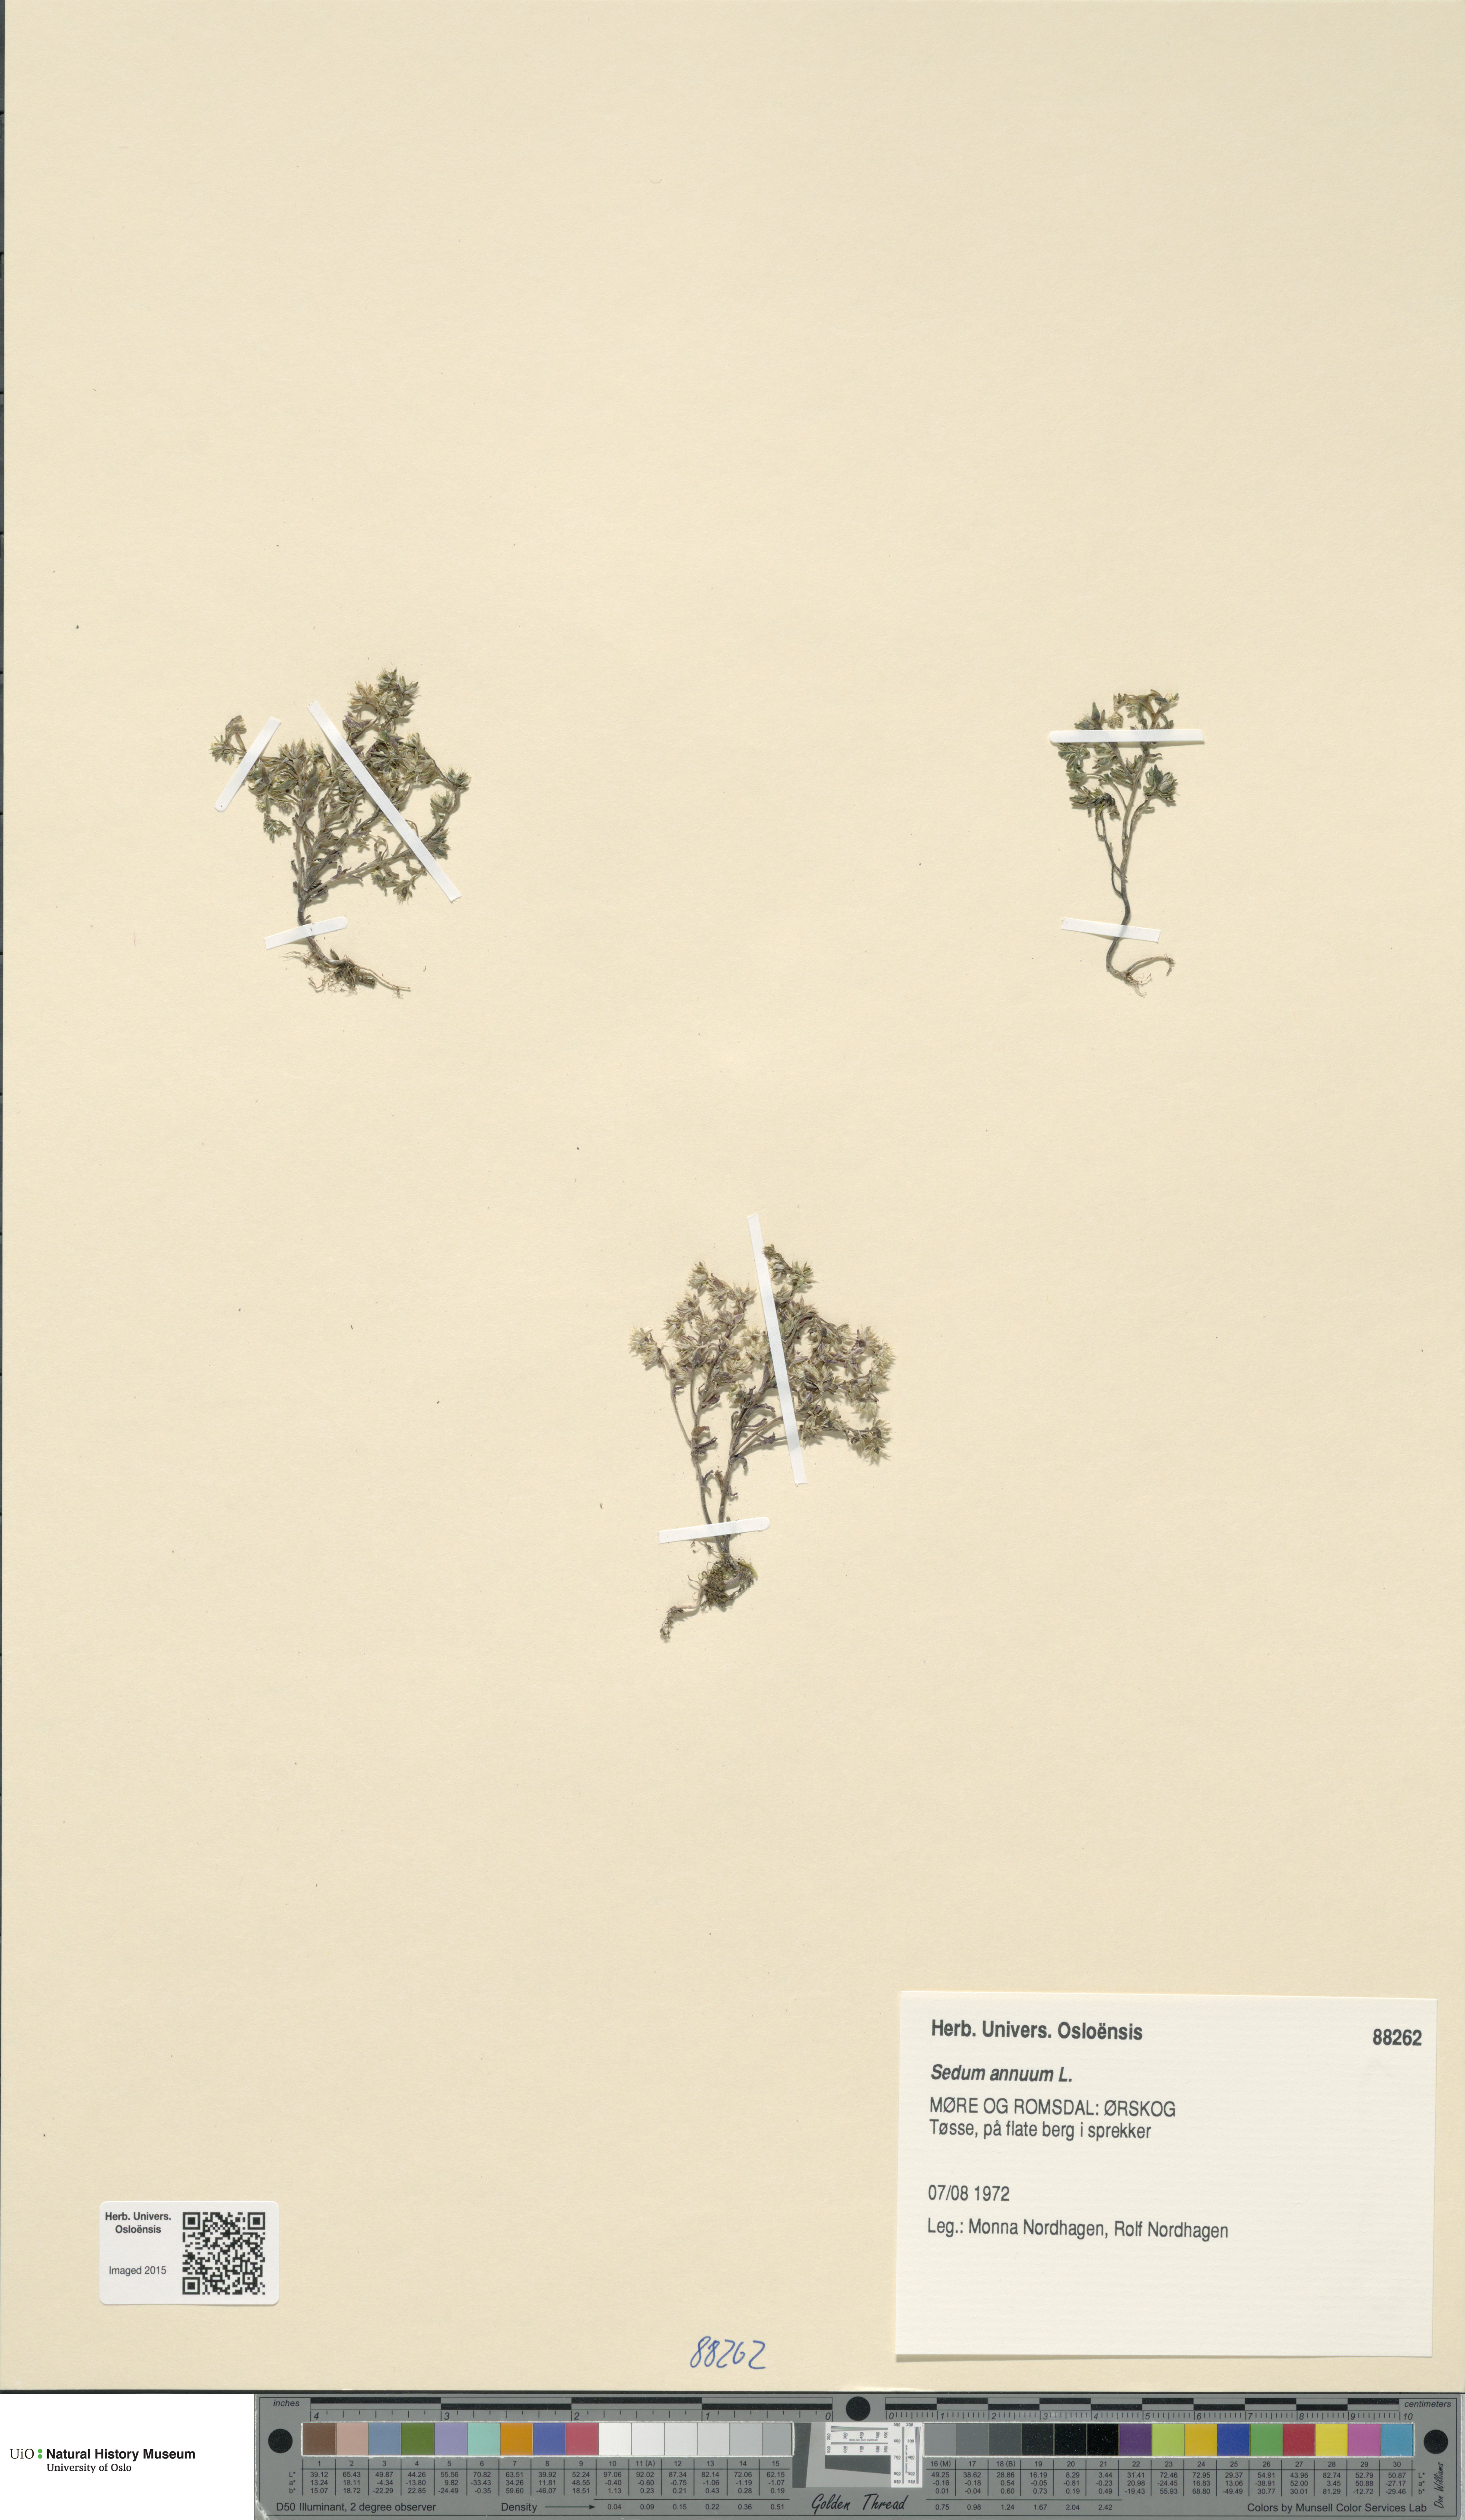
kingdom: Plantae
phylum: Tracheophyta
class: Magnoliopsida
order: Saxifragales
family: Crassulaceae
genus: Sedum
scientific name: Sedum annuum
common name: Annual stonecrop
